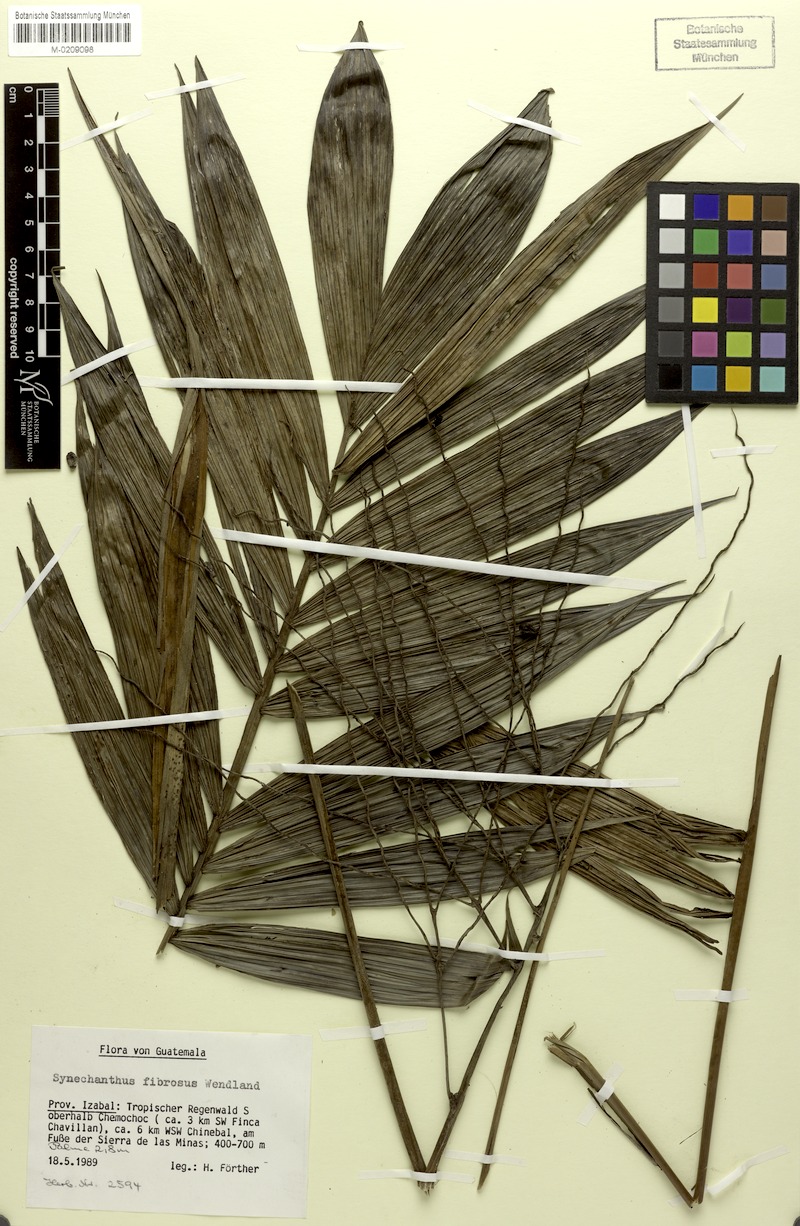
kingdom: Plantae
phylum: Tracheophyta
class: Liliopsida
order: Arecales
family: Arecaceae
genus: Synechanthus
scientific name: Synechanthus fibrosus
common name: Jellybean palm
